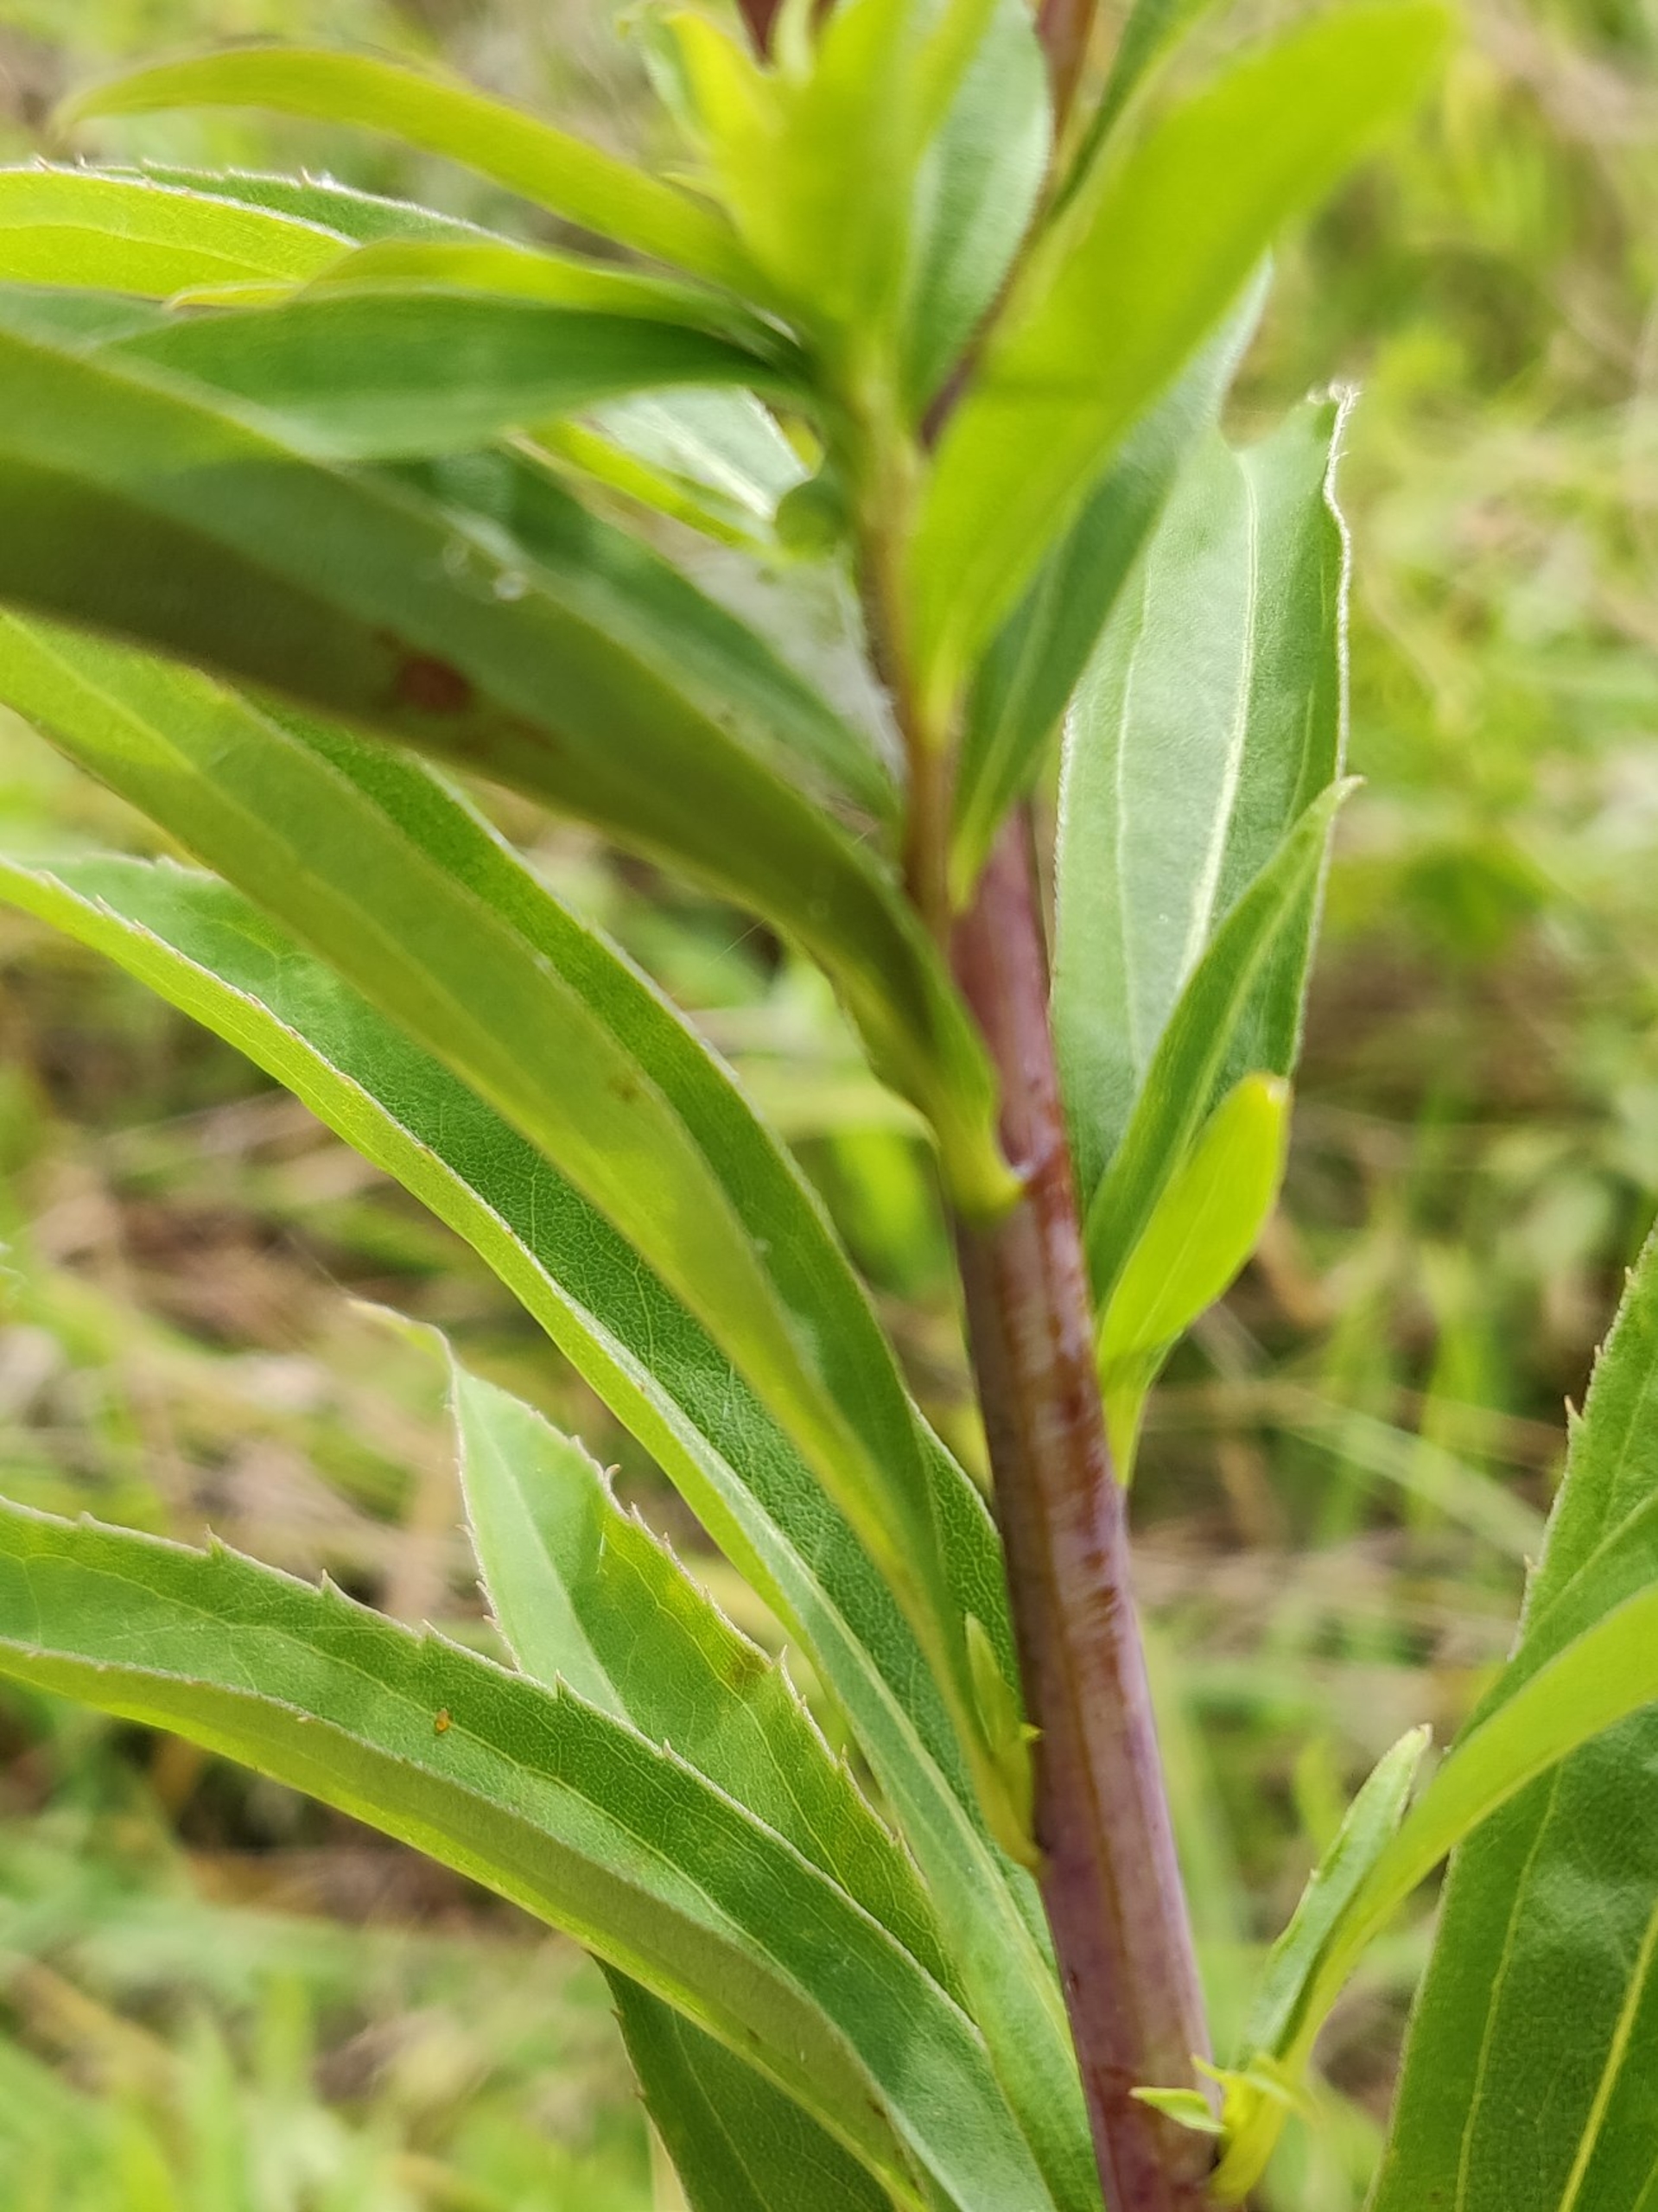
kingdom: Plantae
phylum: Tracheophyta
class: Magnoliopsida
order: Asterales
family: Asteraceae
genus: Solidago
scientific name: Solidago gigantea
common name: Sildig gyldenris
